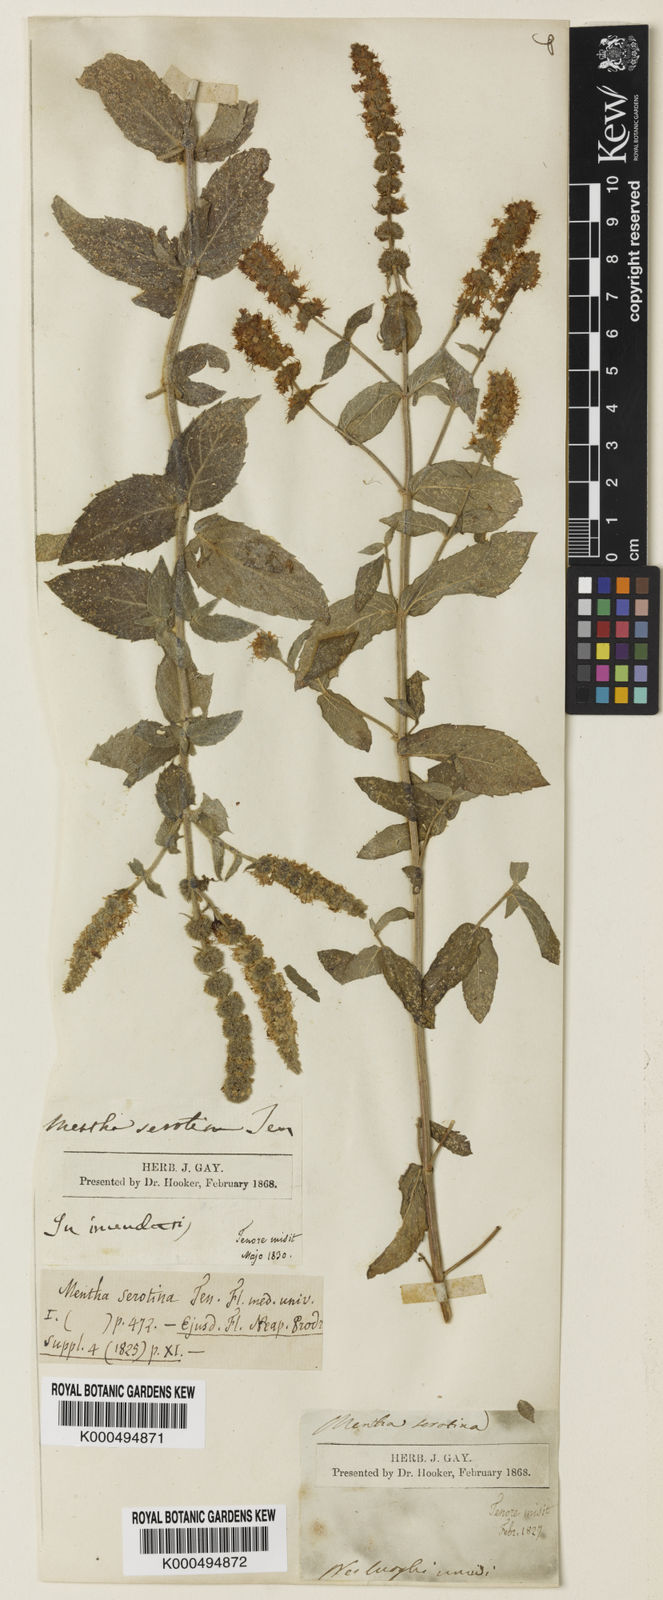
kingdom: Plantae
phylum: Tracheophyta
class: Magnoliopsida
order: Lamiales
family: Lamiaceae
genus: Mentha
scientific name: Mentha rotundifolia
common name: Bigleaf mint
